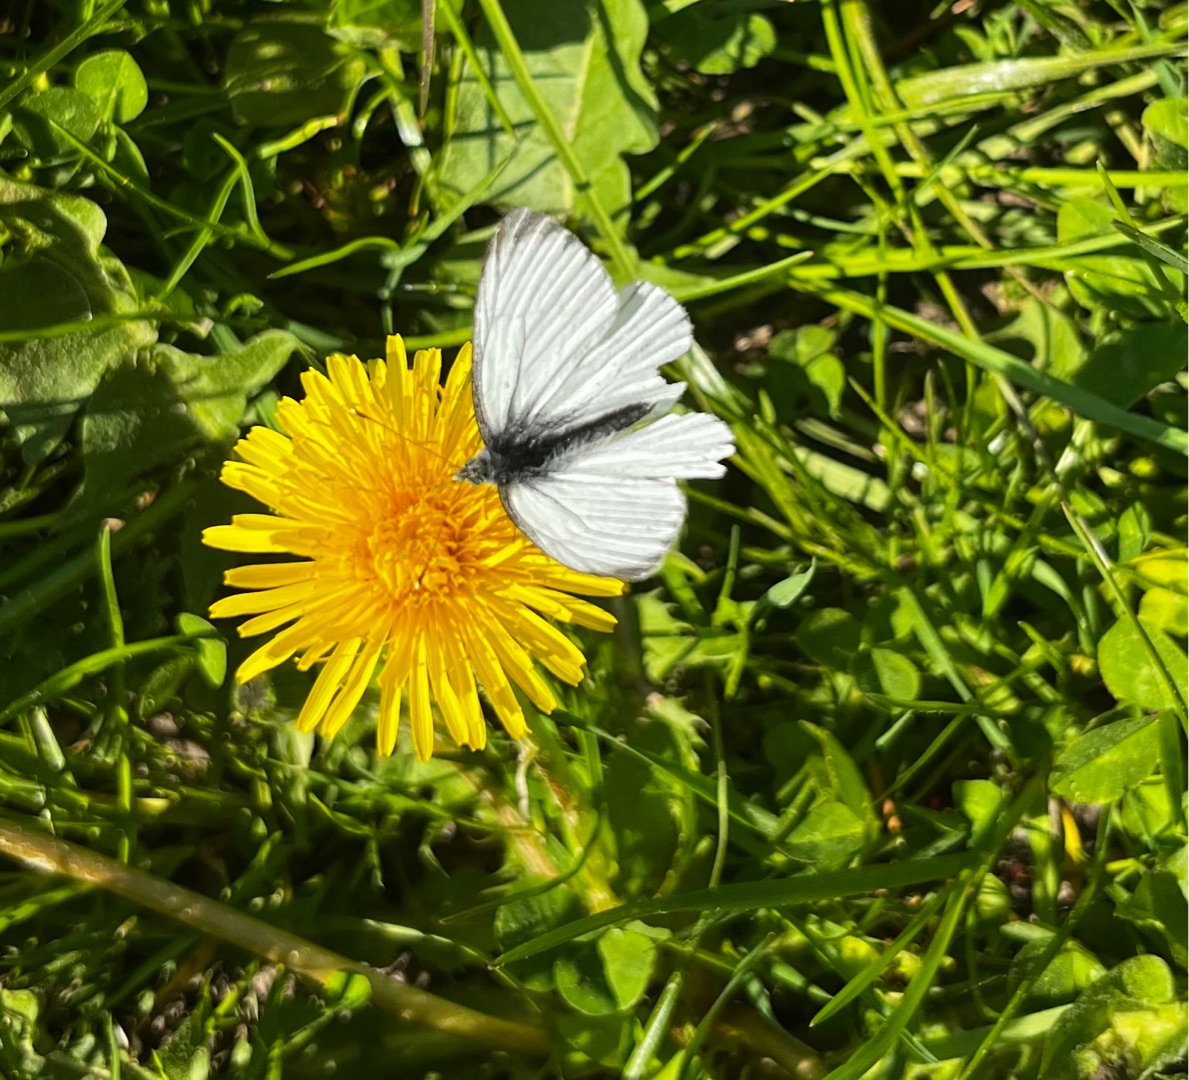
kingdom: Animalia
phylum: Arthropoda
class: Insecta
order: Lepidoptera
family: Pieridae
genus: Pieris
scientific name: Pieris napi
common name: Grønåret kålsommerfugl
